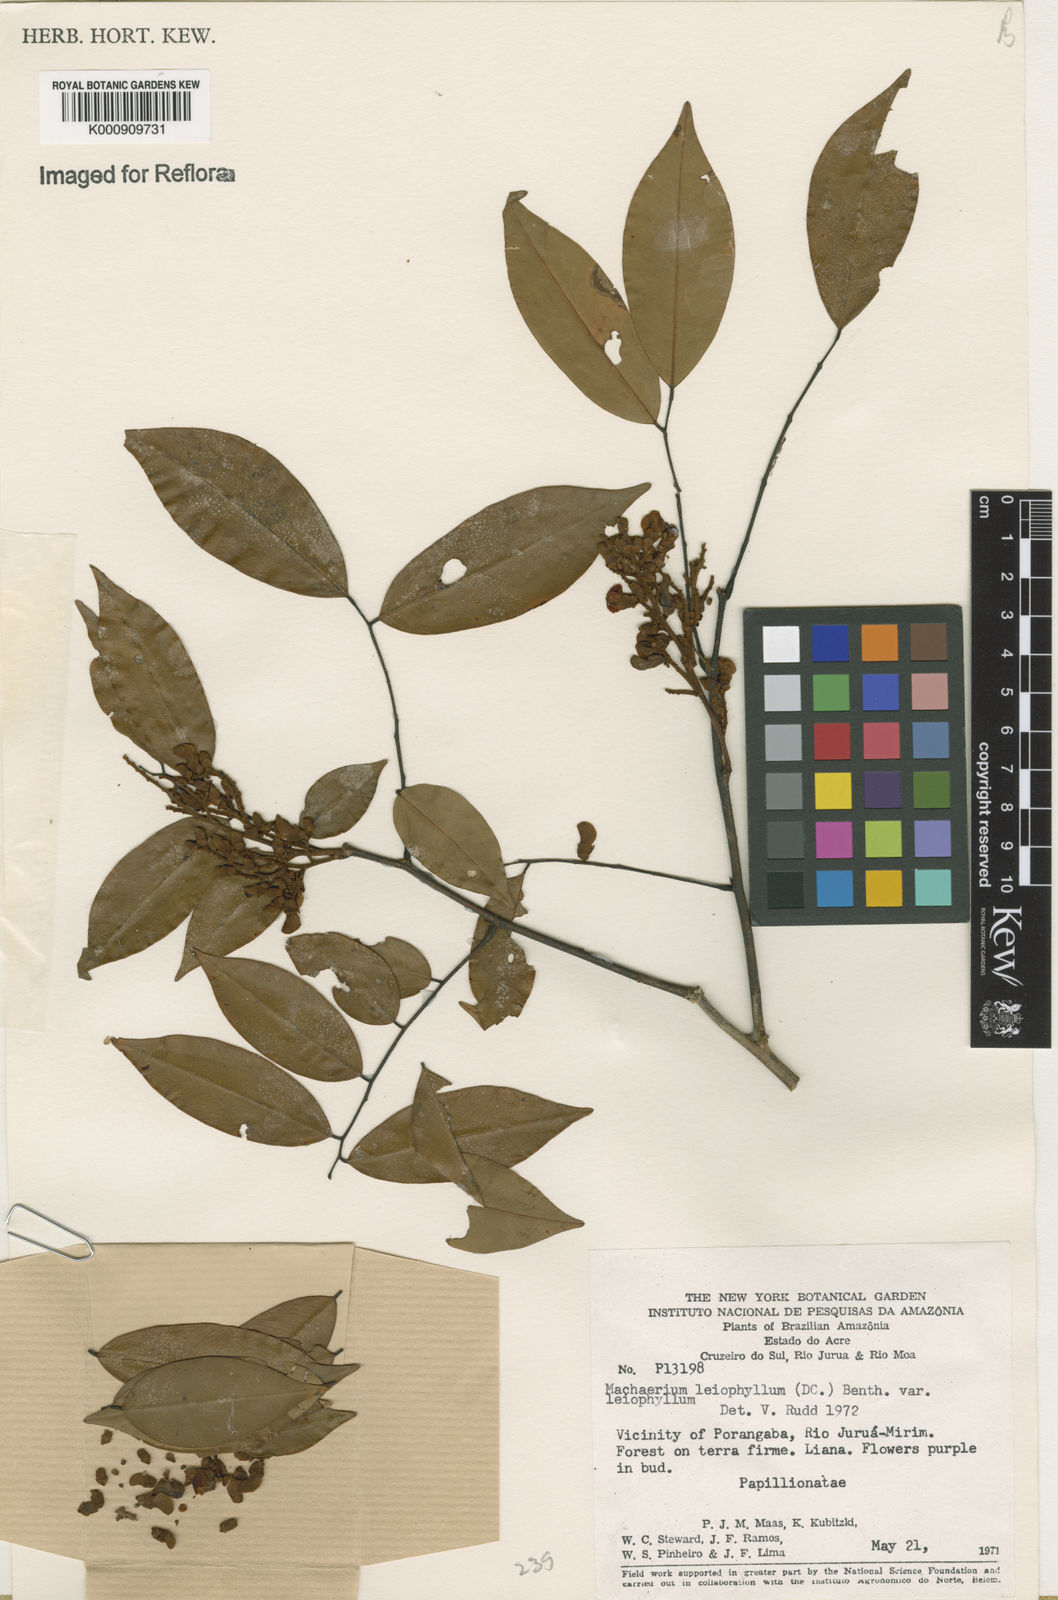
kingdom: Plantae
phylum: Tracheophyta
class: Magnoliopsida
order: Fabales
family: Fabaceae
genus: Machaerium
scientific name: Machaerium leiophyllum
